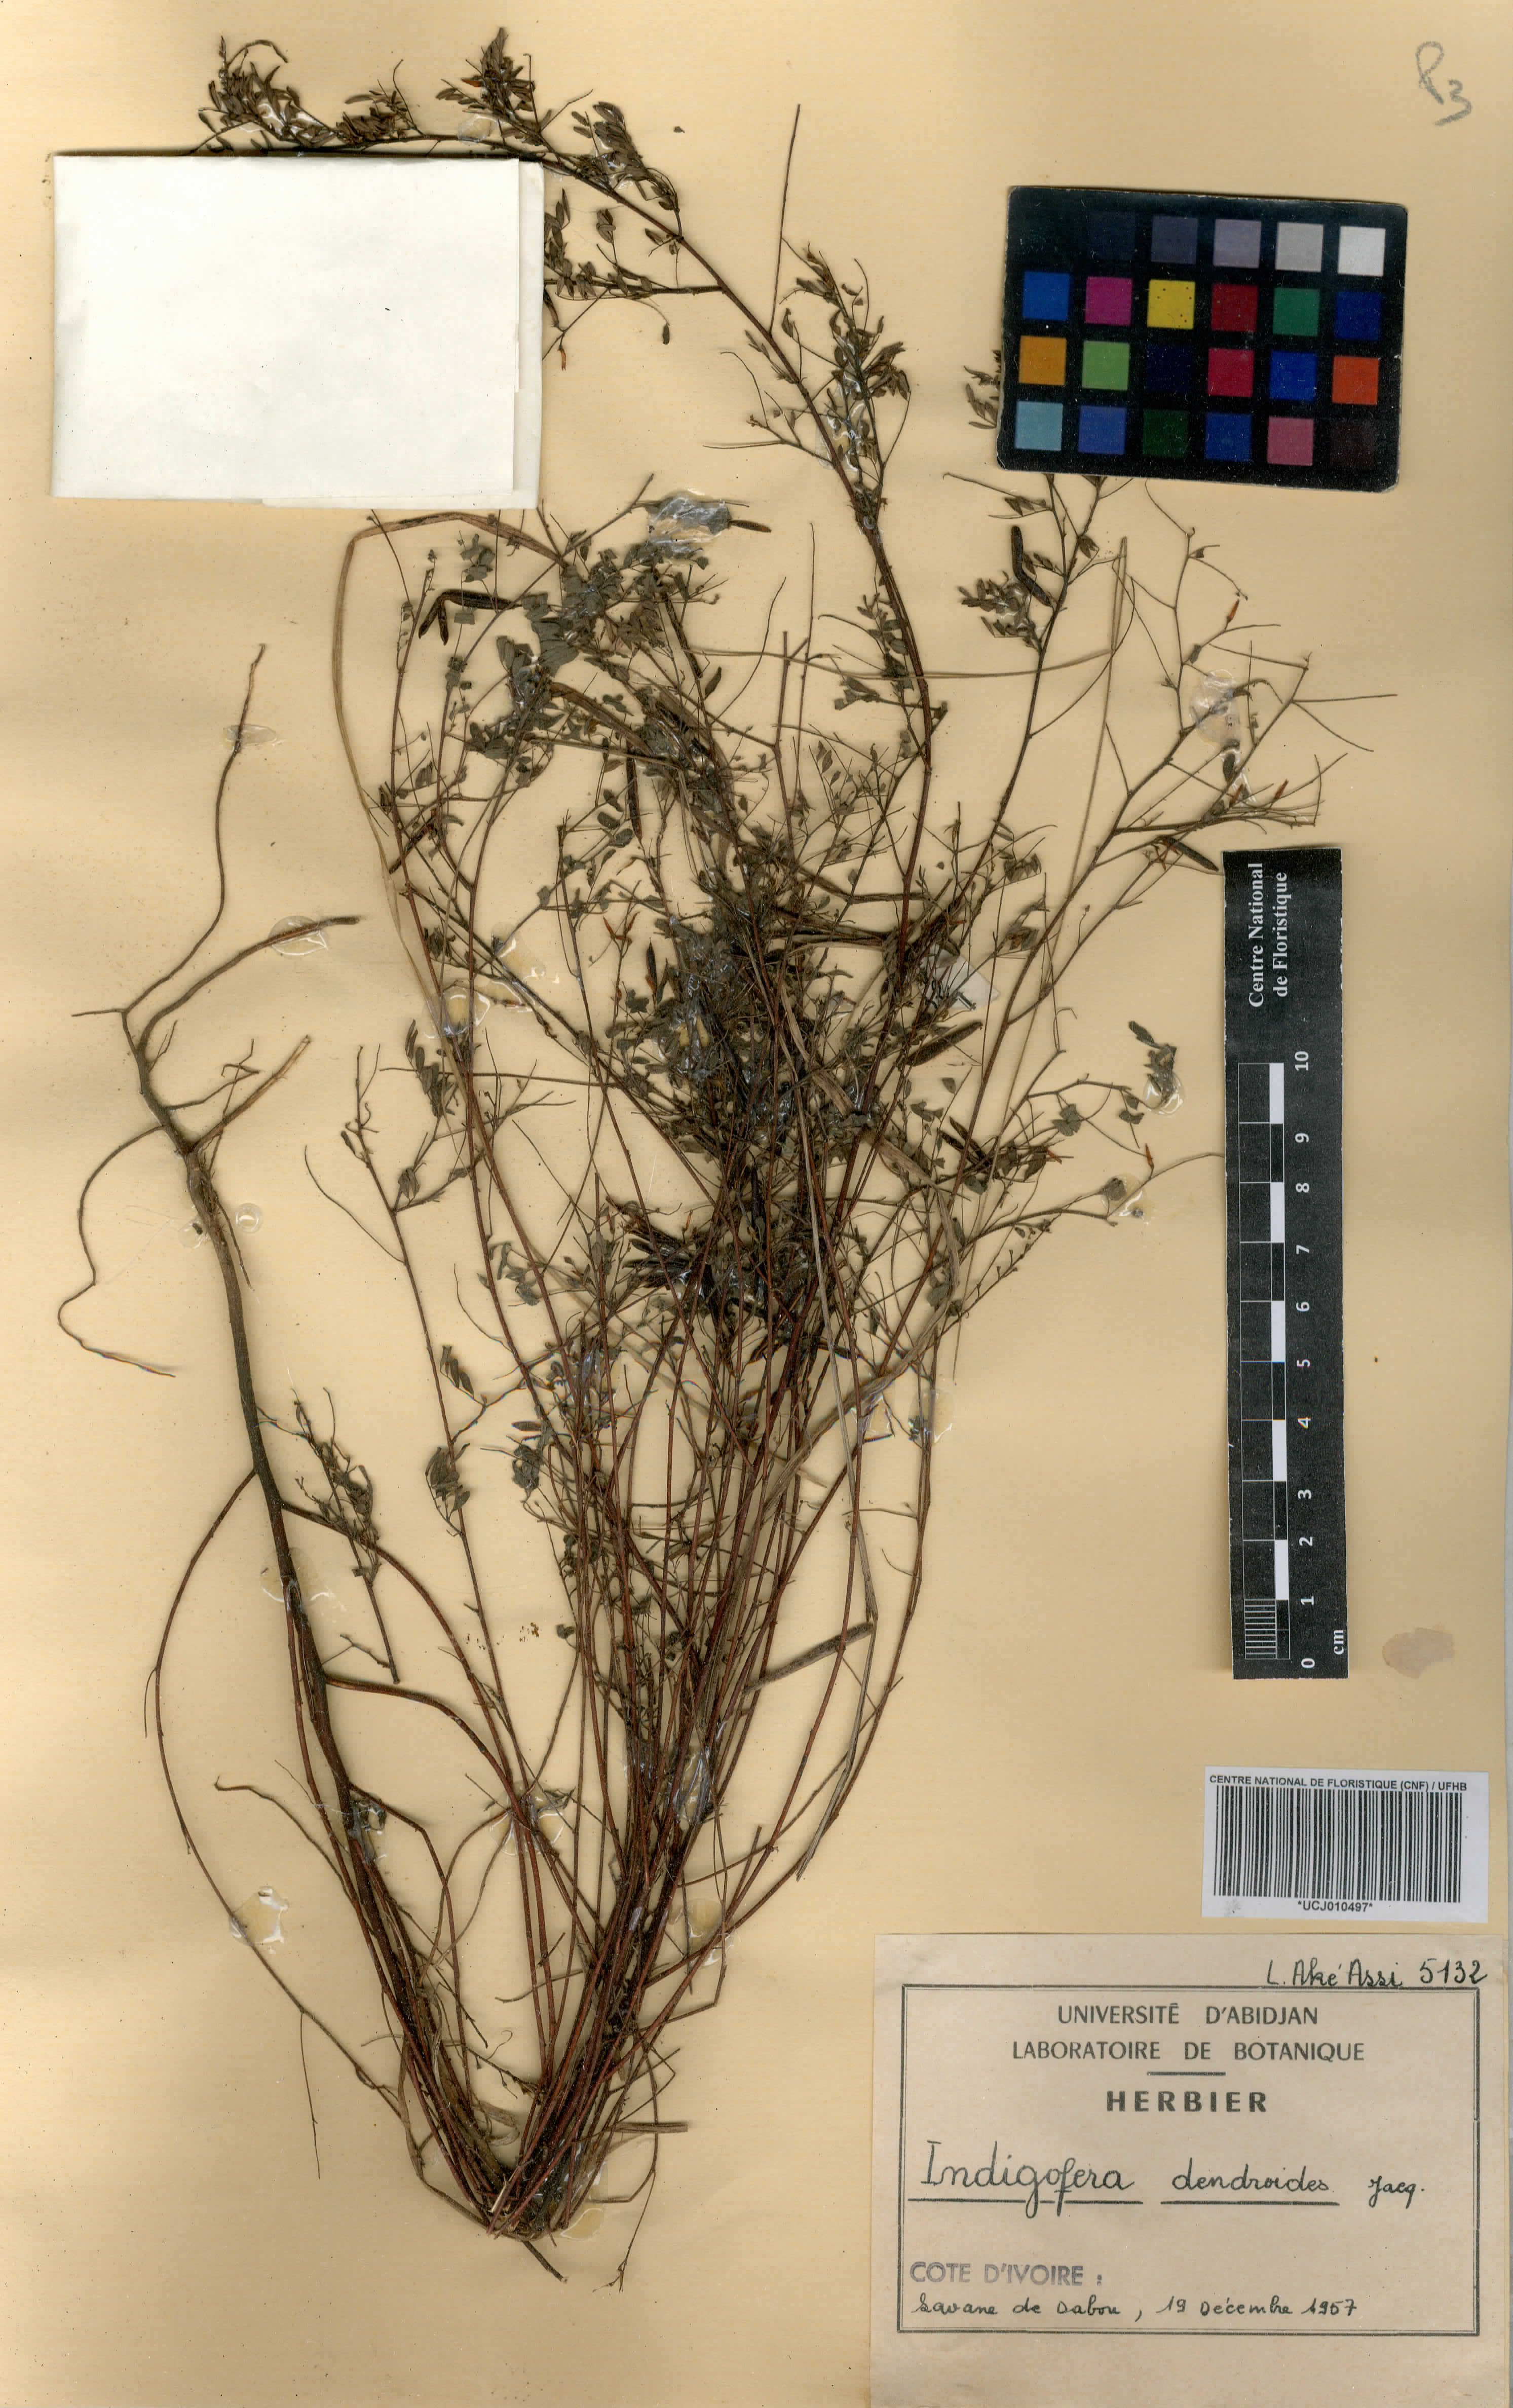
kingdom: Plantae
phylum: Tracheophyta
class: Magnoliopsida
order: Fabales
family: Fabaceae
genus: Indigofera
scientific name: Indigofera dendroides
